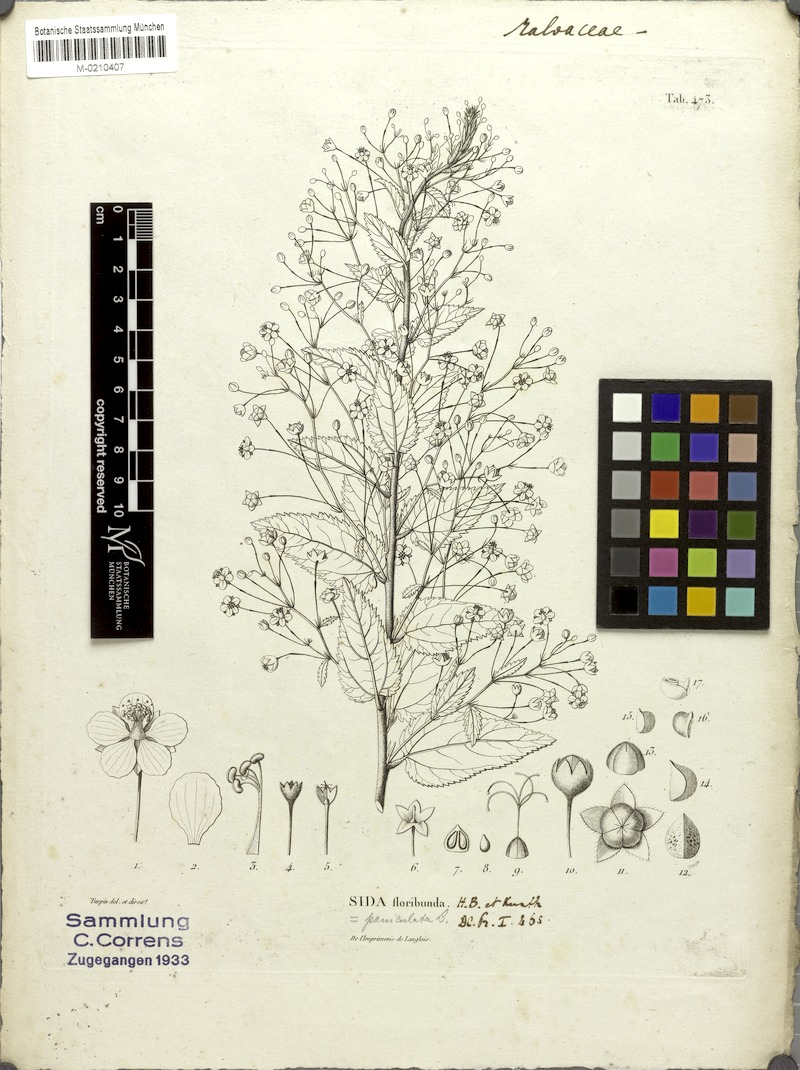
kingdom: Plantae
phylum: Tracheophyta
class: Magnoliopsida
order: Malvales
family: Malvaceae
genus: Sidastrum
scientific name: Sidastrum paniculatum
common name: Panicled sandmallow
